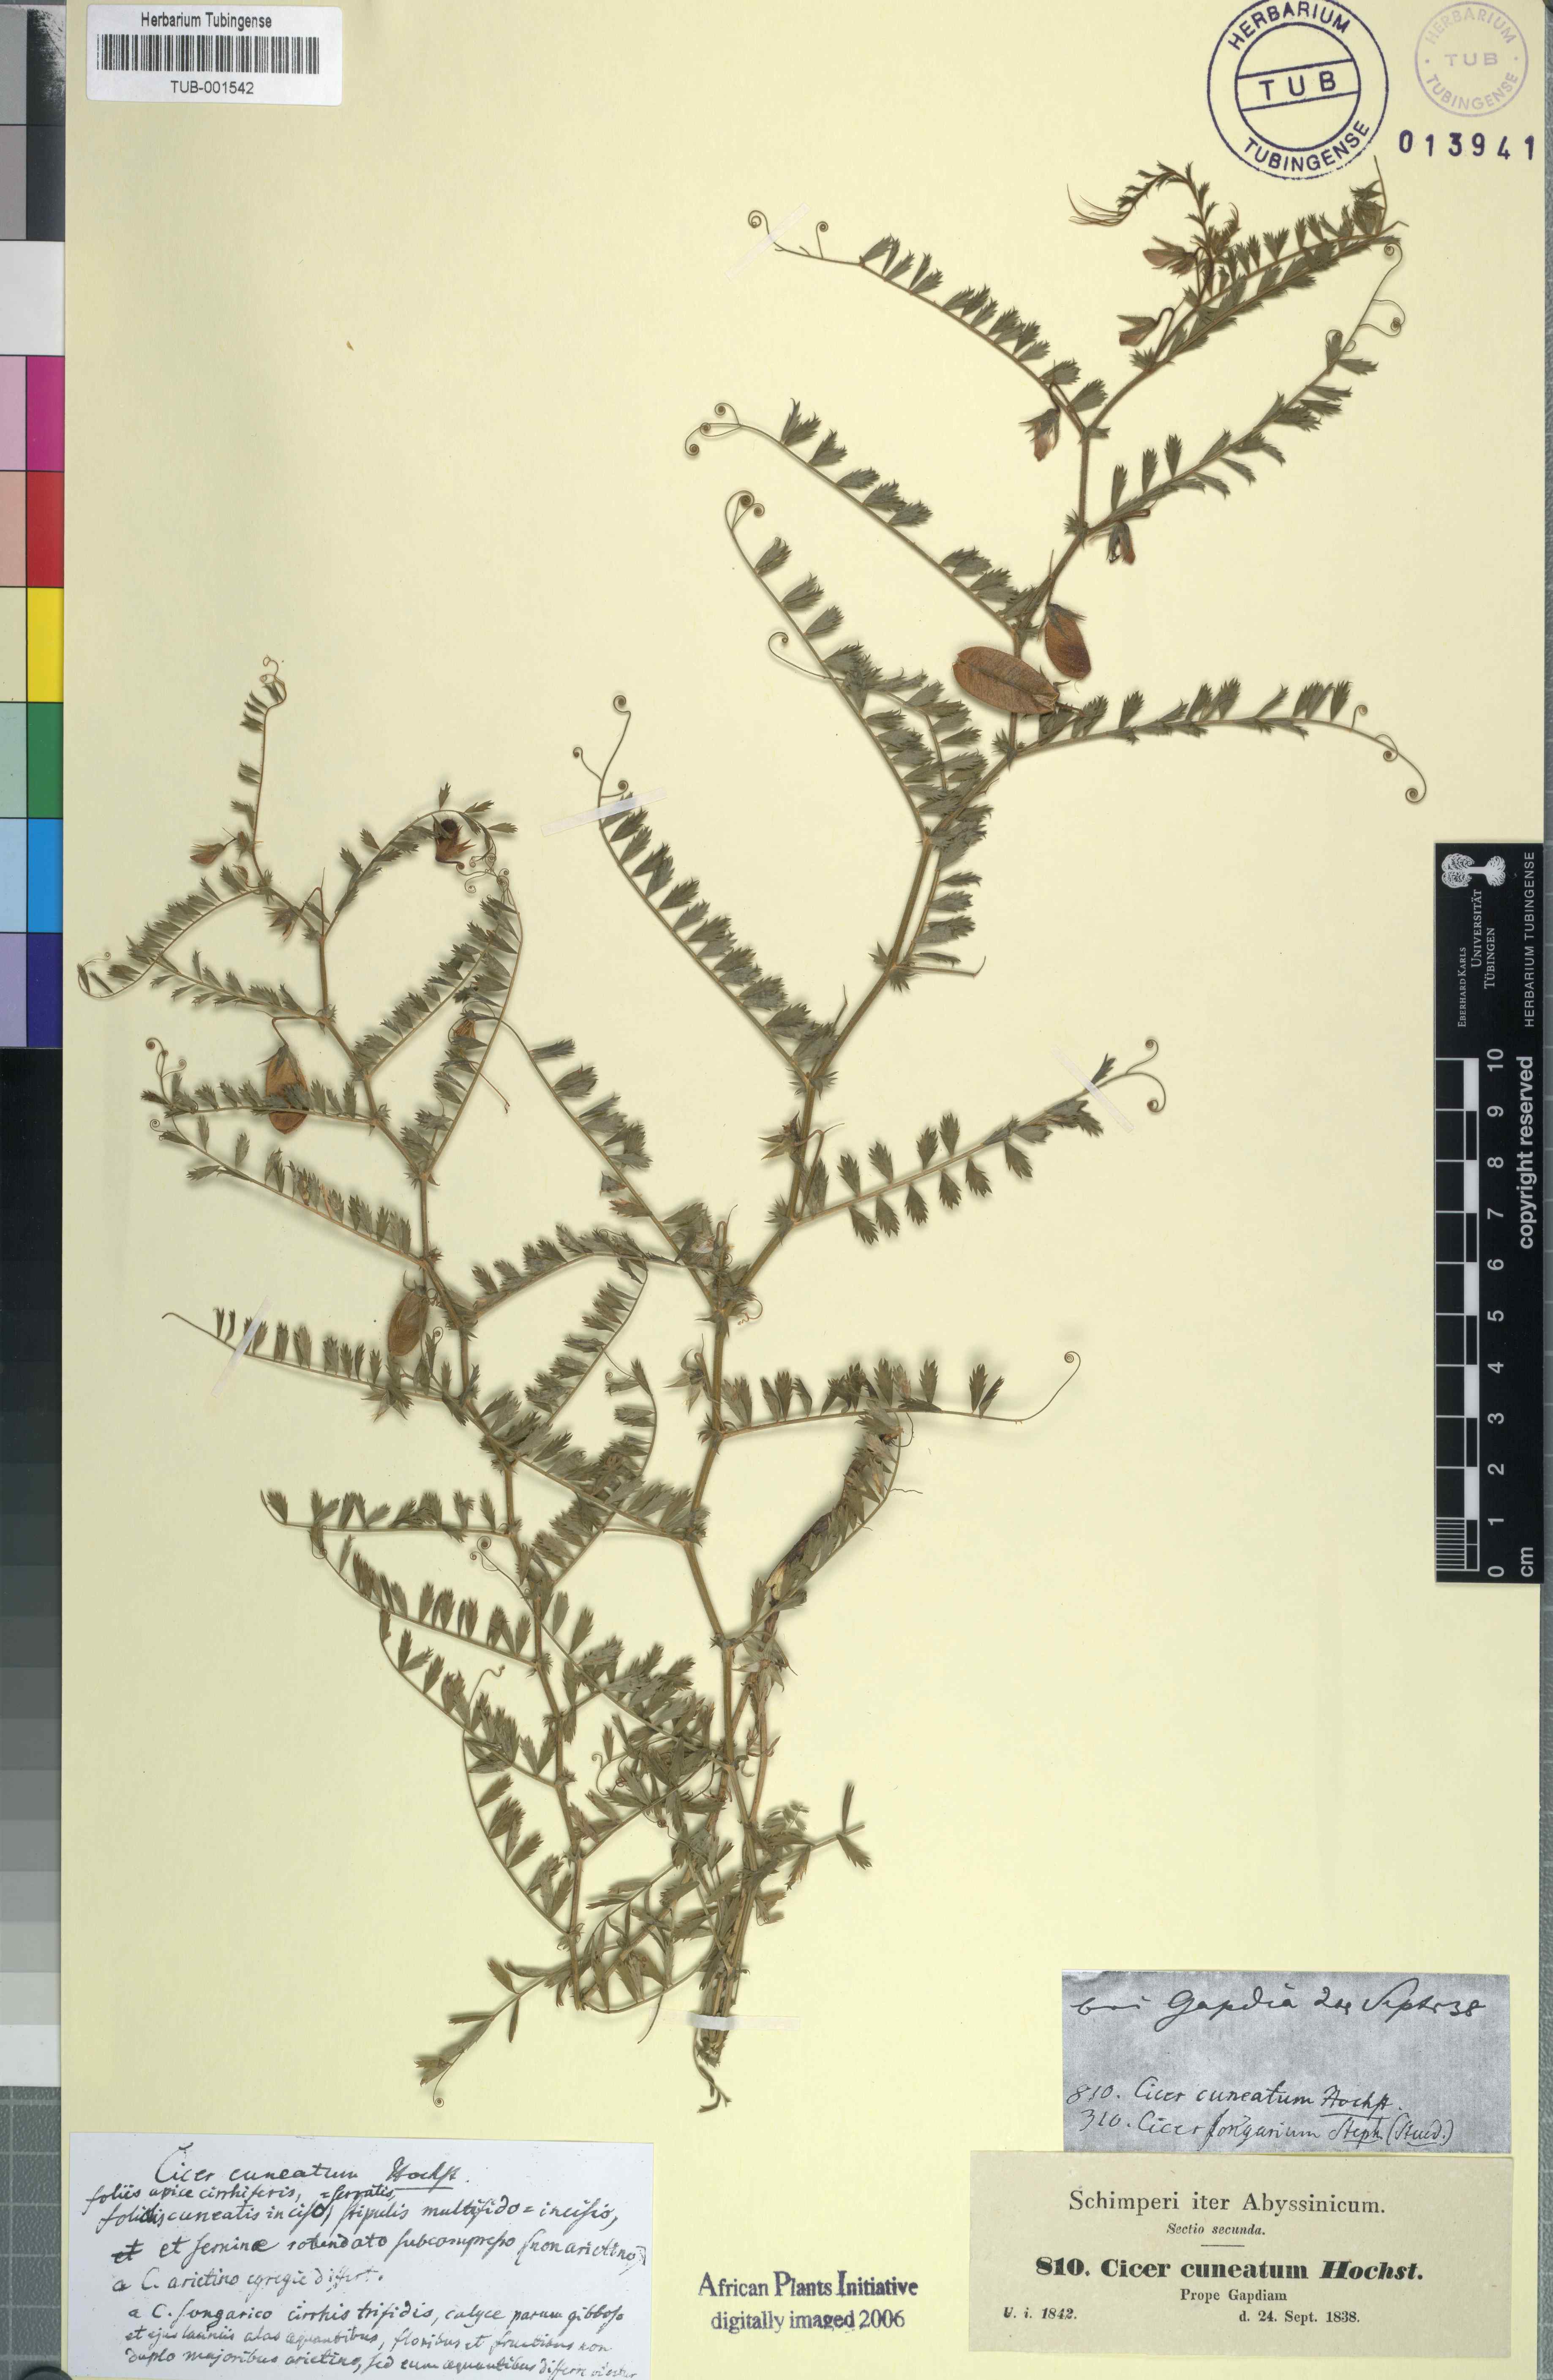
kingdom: Plantae
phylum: Tracheophyta
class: Magnoliopsida
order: Fabales
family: Fabaceae
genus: Cicer
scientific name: Cicer arietinum
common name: Chick pea
